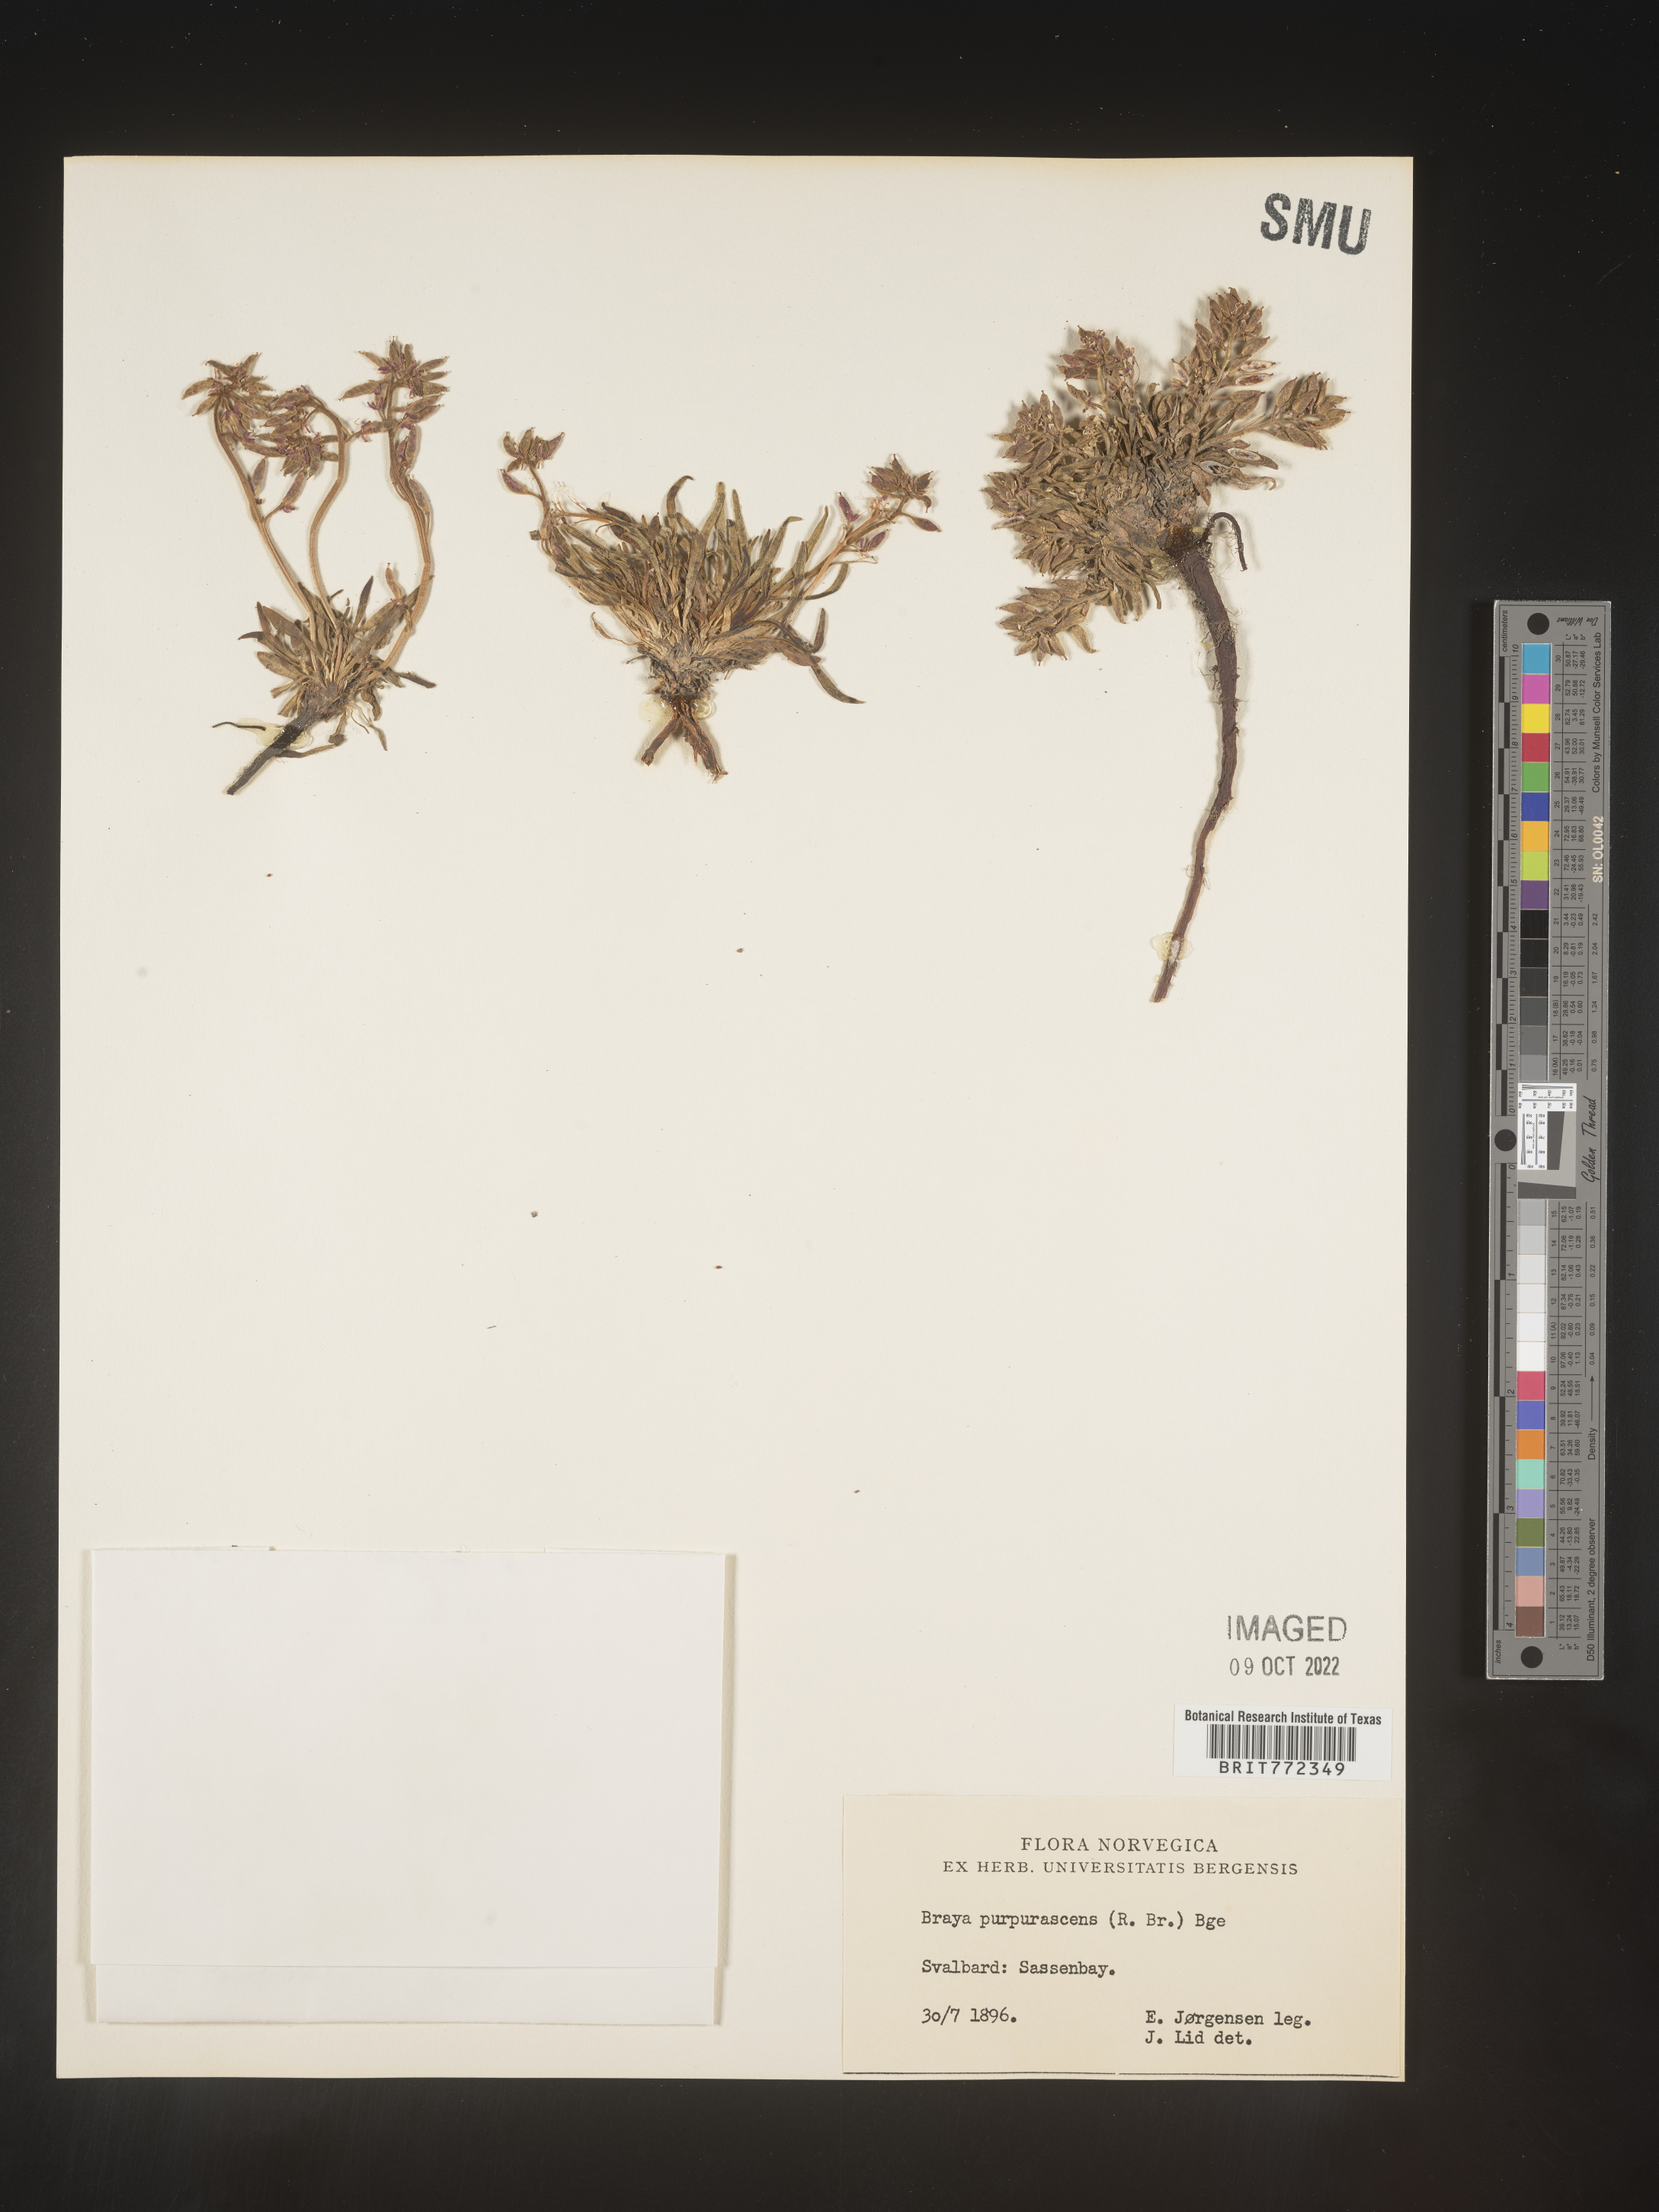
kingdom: Plantae
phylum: Tracheophyta
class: Magnoliopsida
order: Brassicales
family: Brassicaceae
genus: Braya
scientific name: Braya
